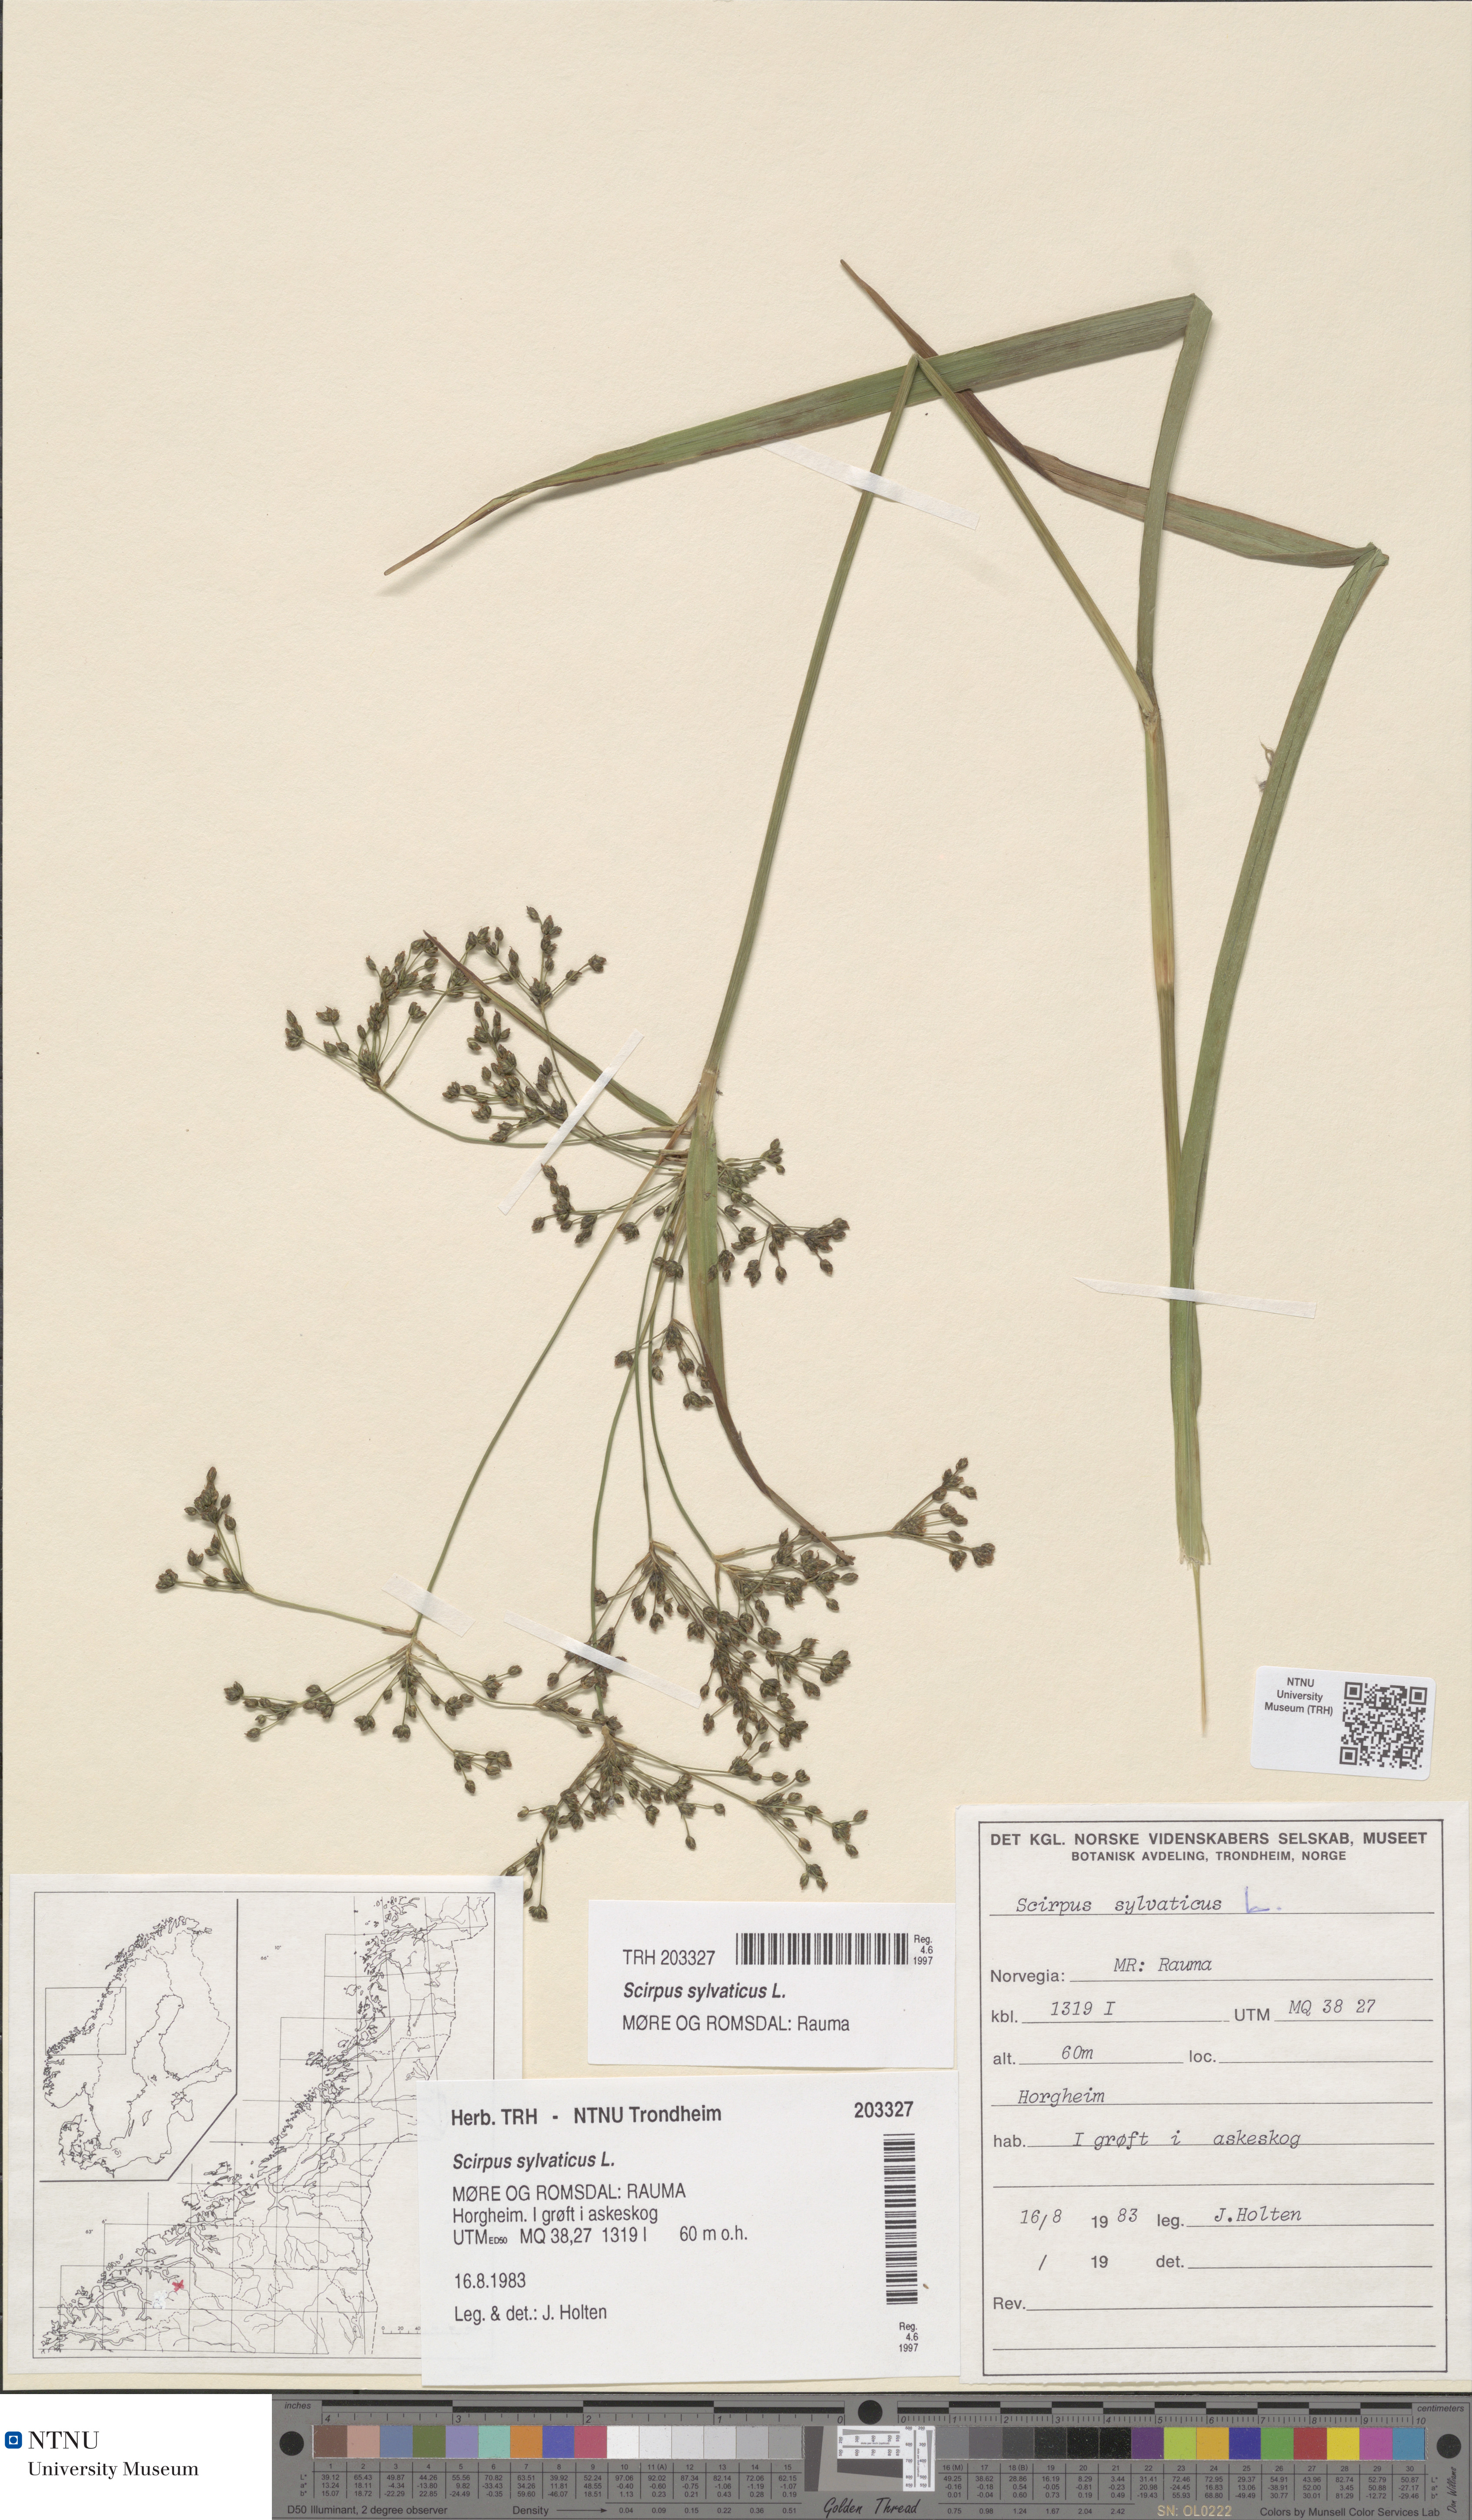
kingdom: Plantae
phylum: Tracheophyta
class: Liliopsida
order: Poales
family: Cyperaceae
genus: Scirpus
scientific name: Scirpus sylvaticus
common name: Wood club-rush
